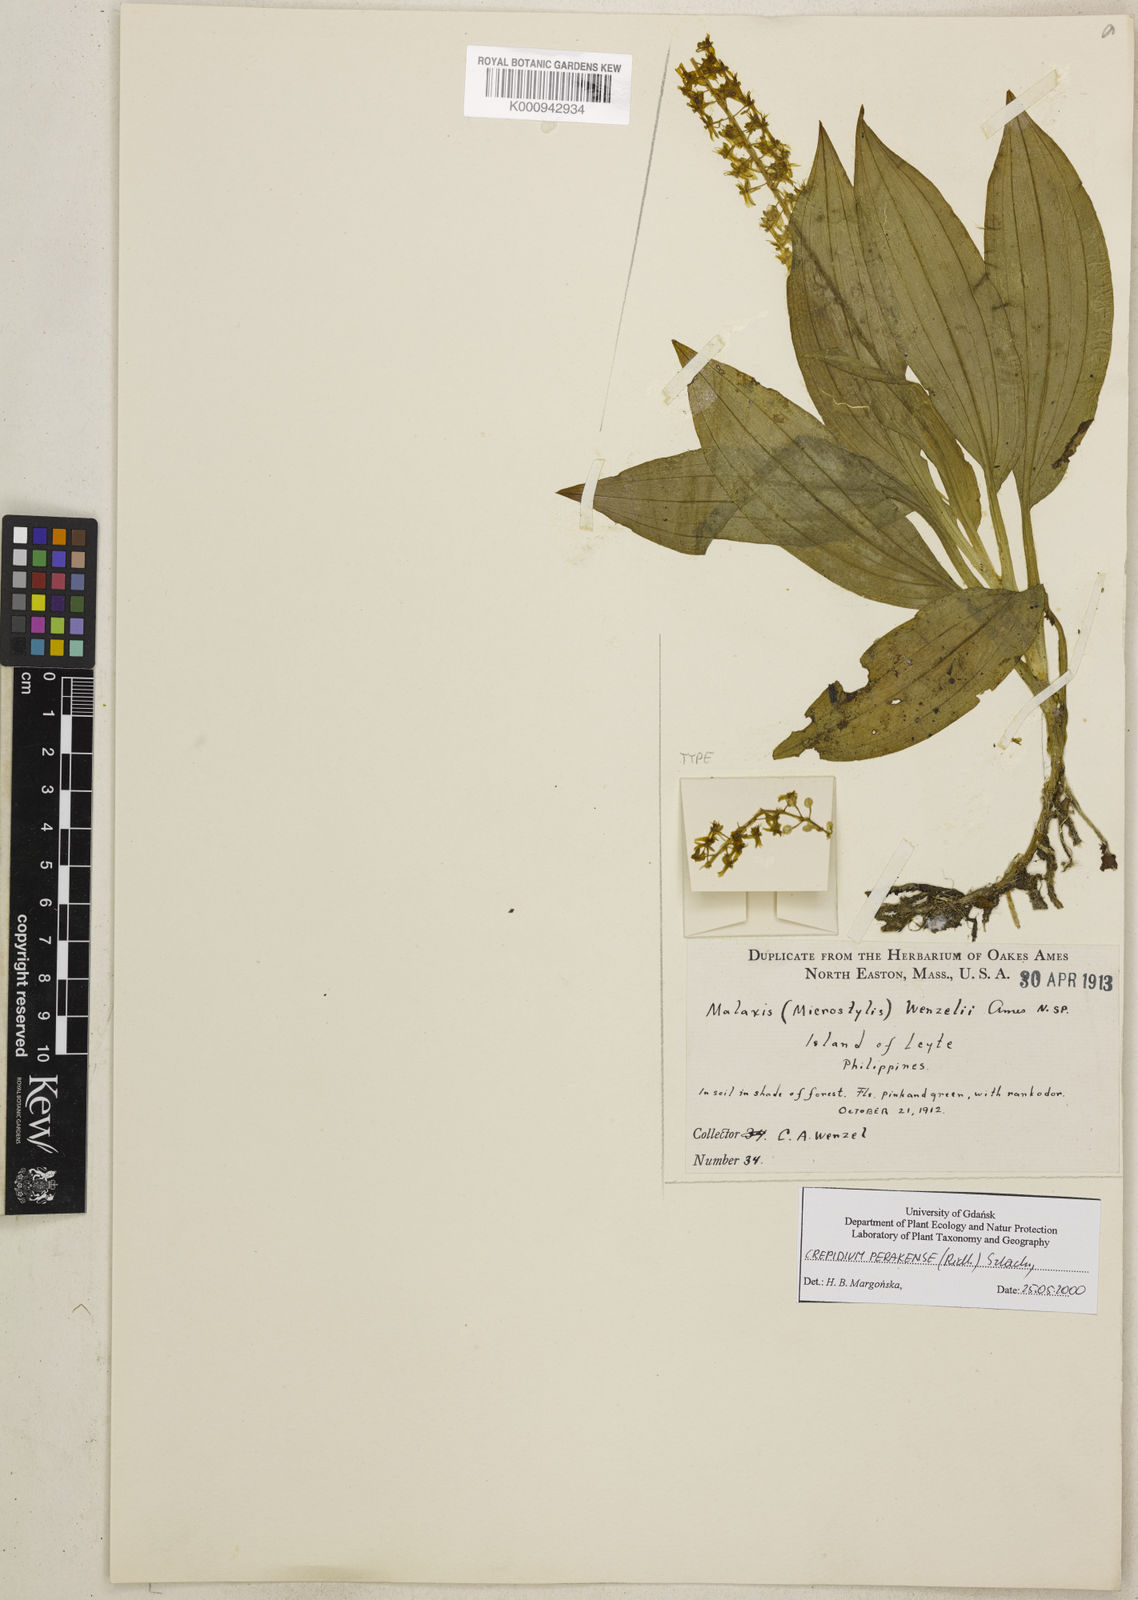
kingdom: Plantae
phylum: Tracheophyta
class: Liliopsida
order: Asparagales
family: Orchidaceae
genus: Crepidium
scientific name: Crepidium perakense
